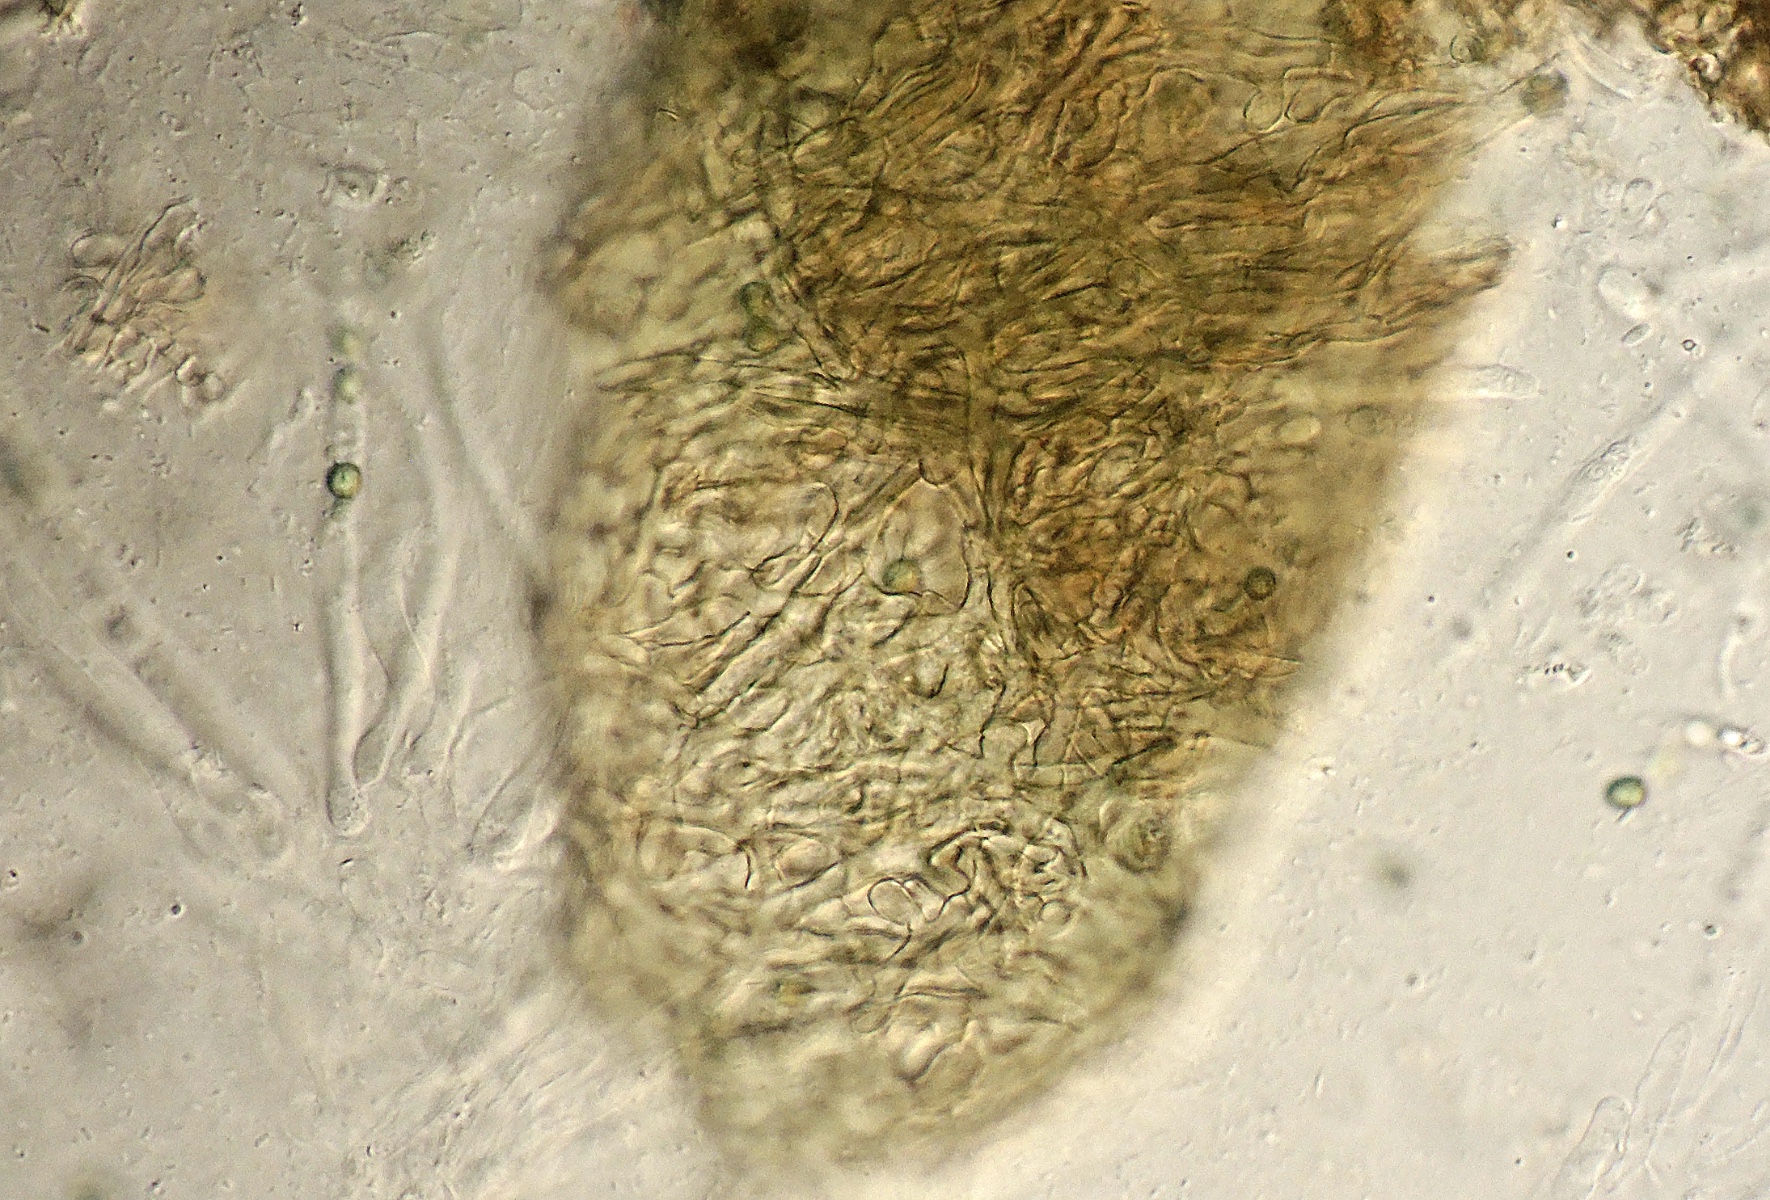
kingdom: Fungi
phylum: Ascomycota
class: Sordariomycetes
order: Hypocreales
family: Hypocreaceae
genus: Trichoderma
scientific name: Trichoderma atrobrunneum
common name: grønsort kødkerne
